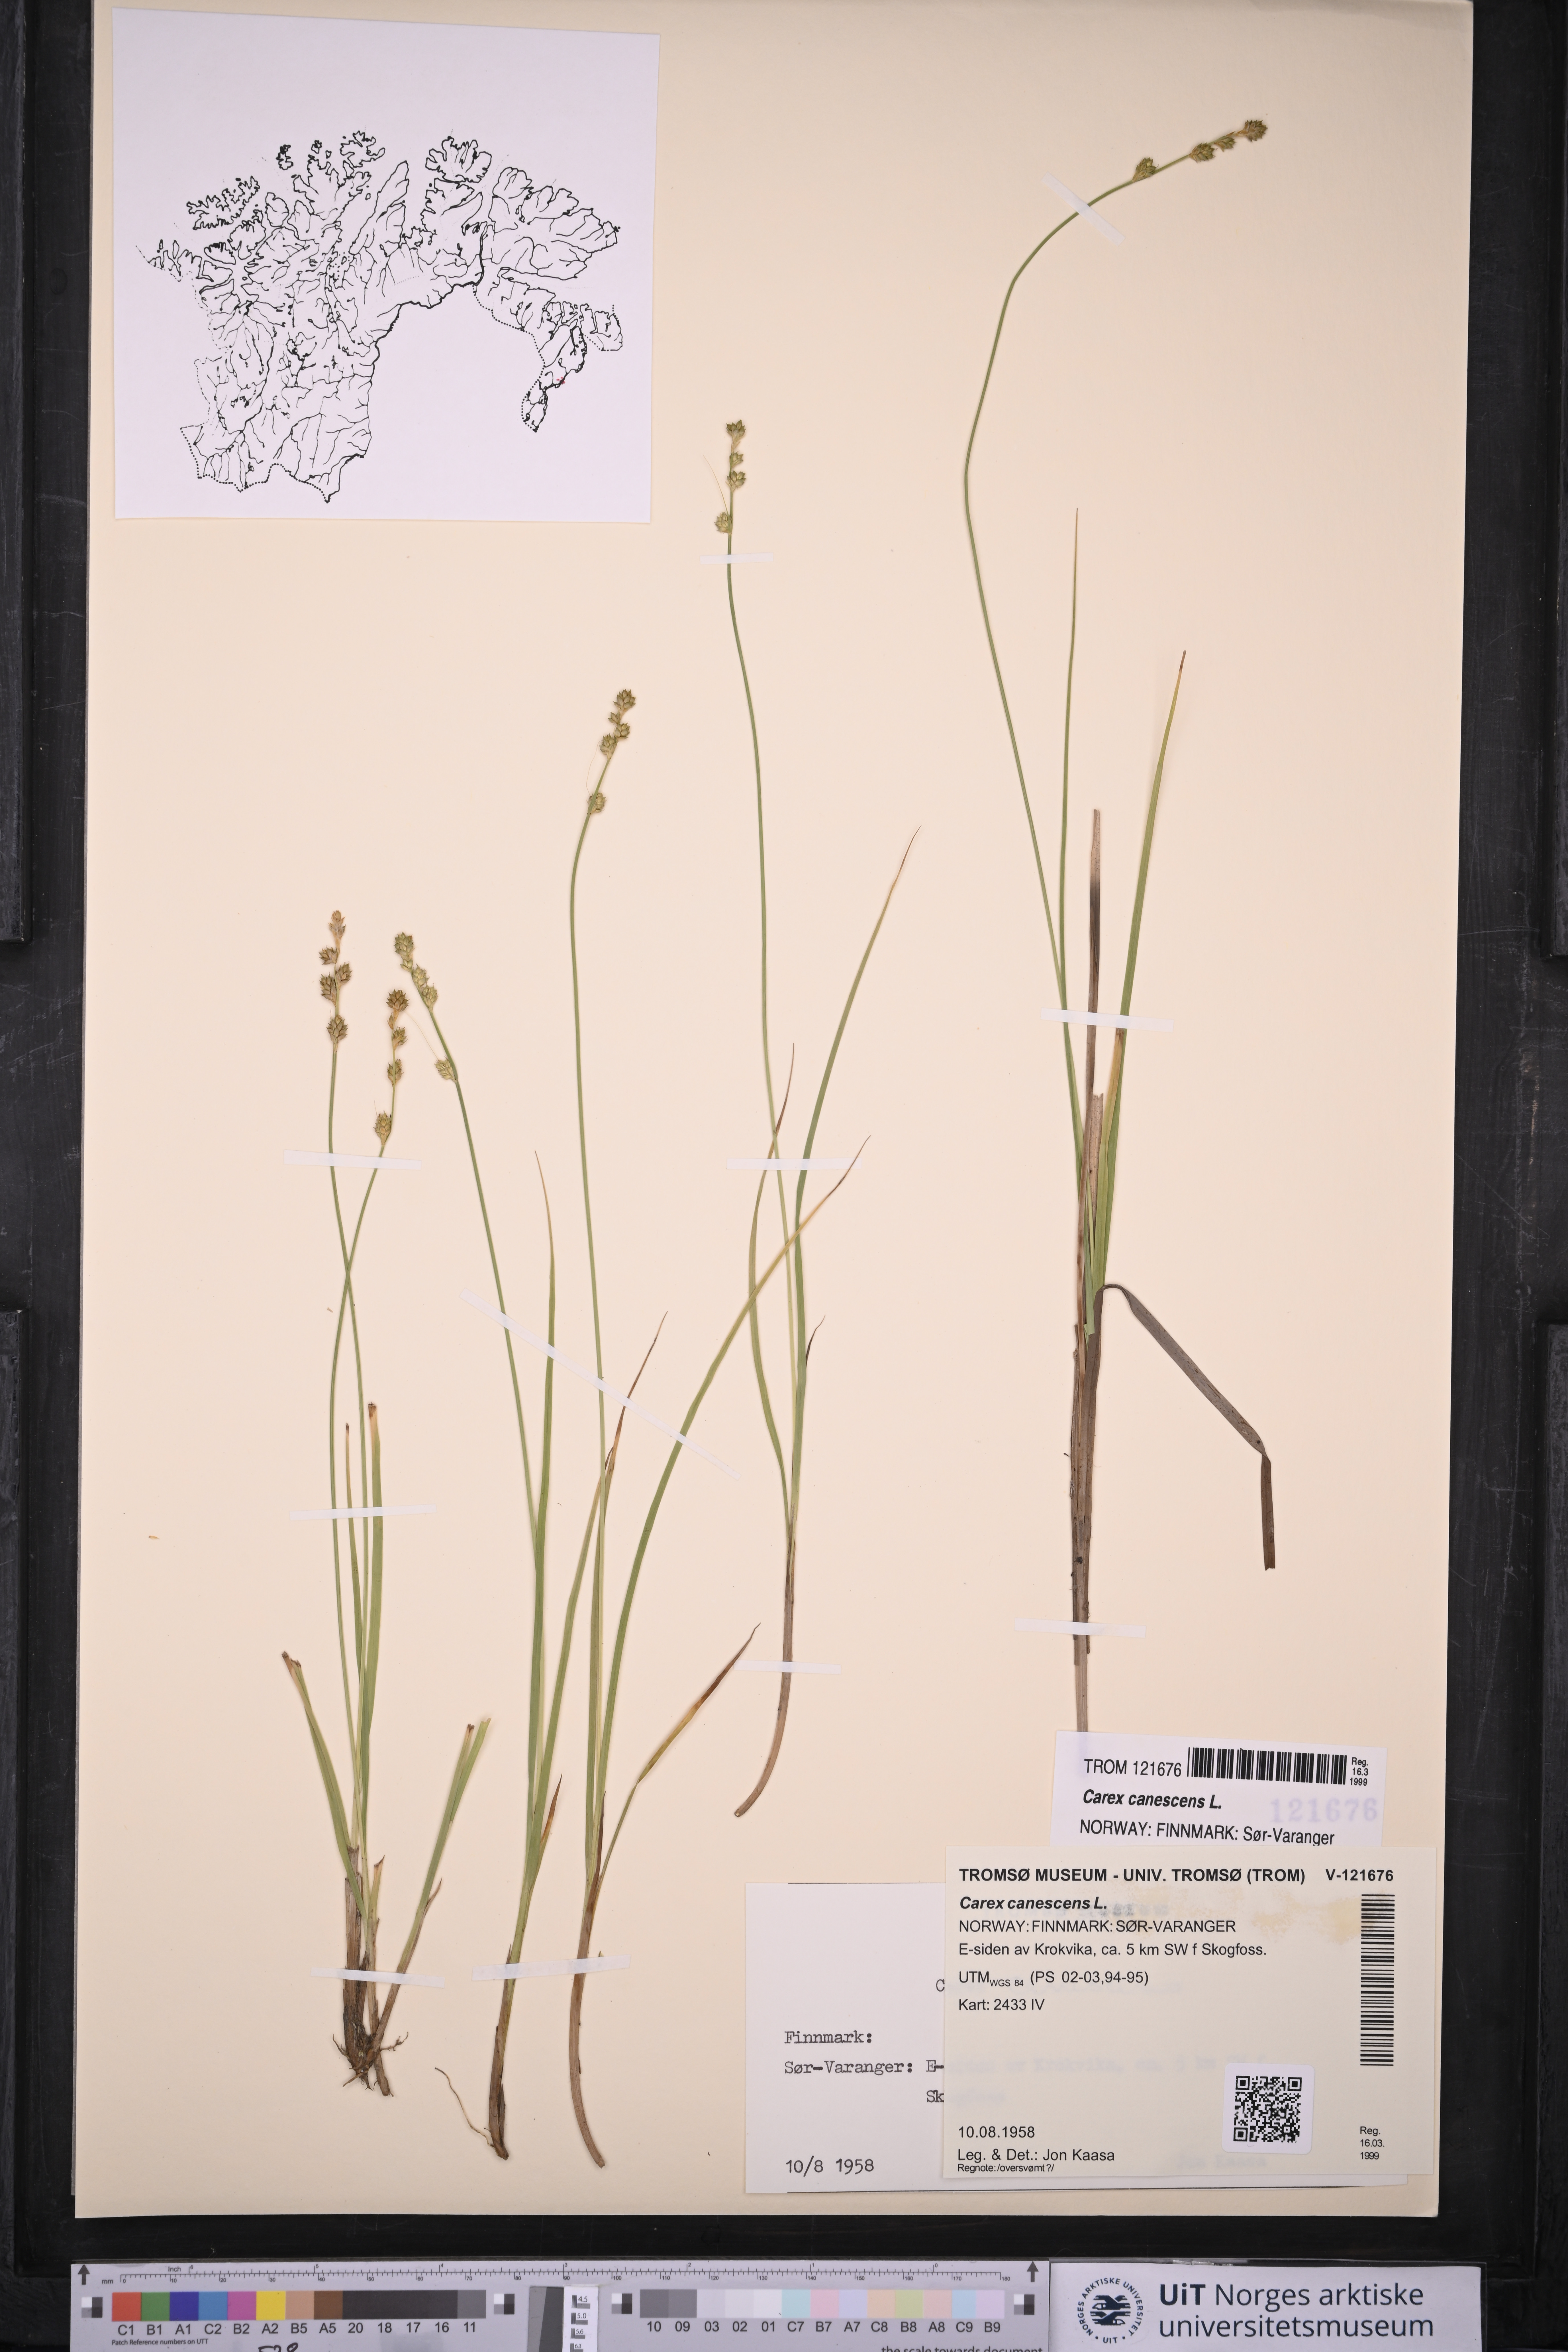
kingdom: Plantae
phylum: Tracheophyta
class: Liliopsida
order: Poales
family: Cyperaceae
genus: Carex
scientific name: Carex canescens
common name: White sedge
